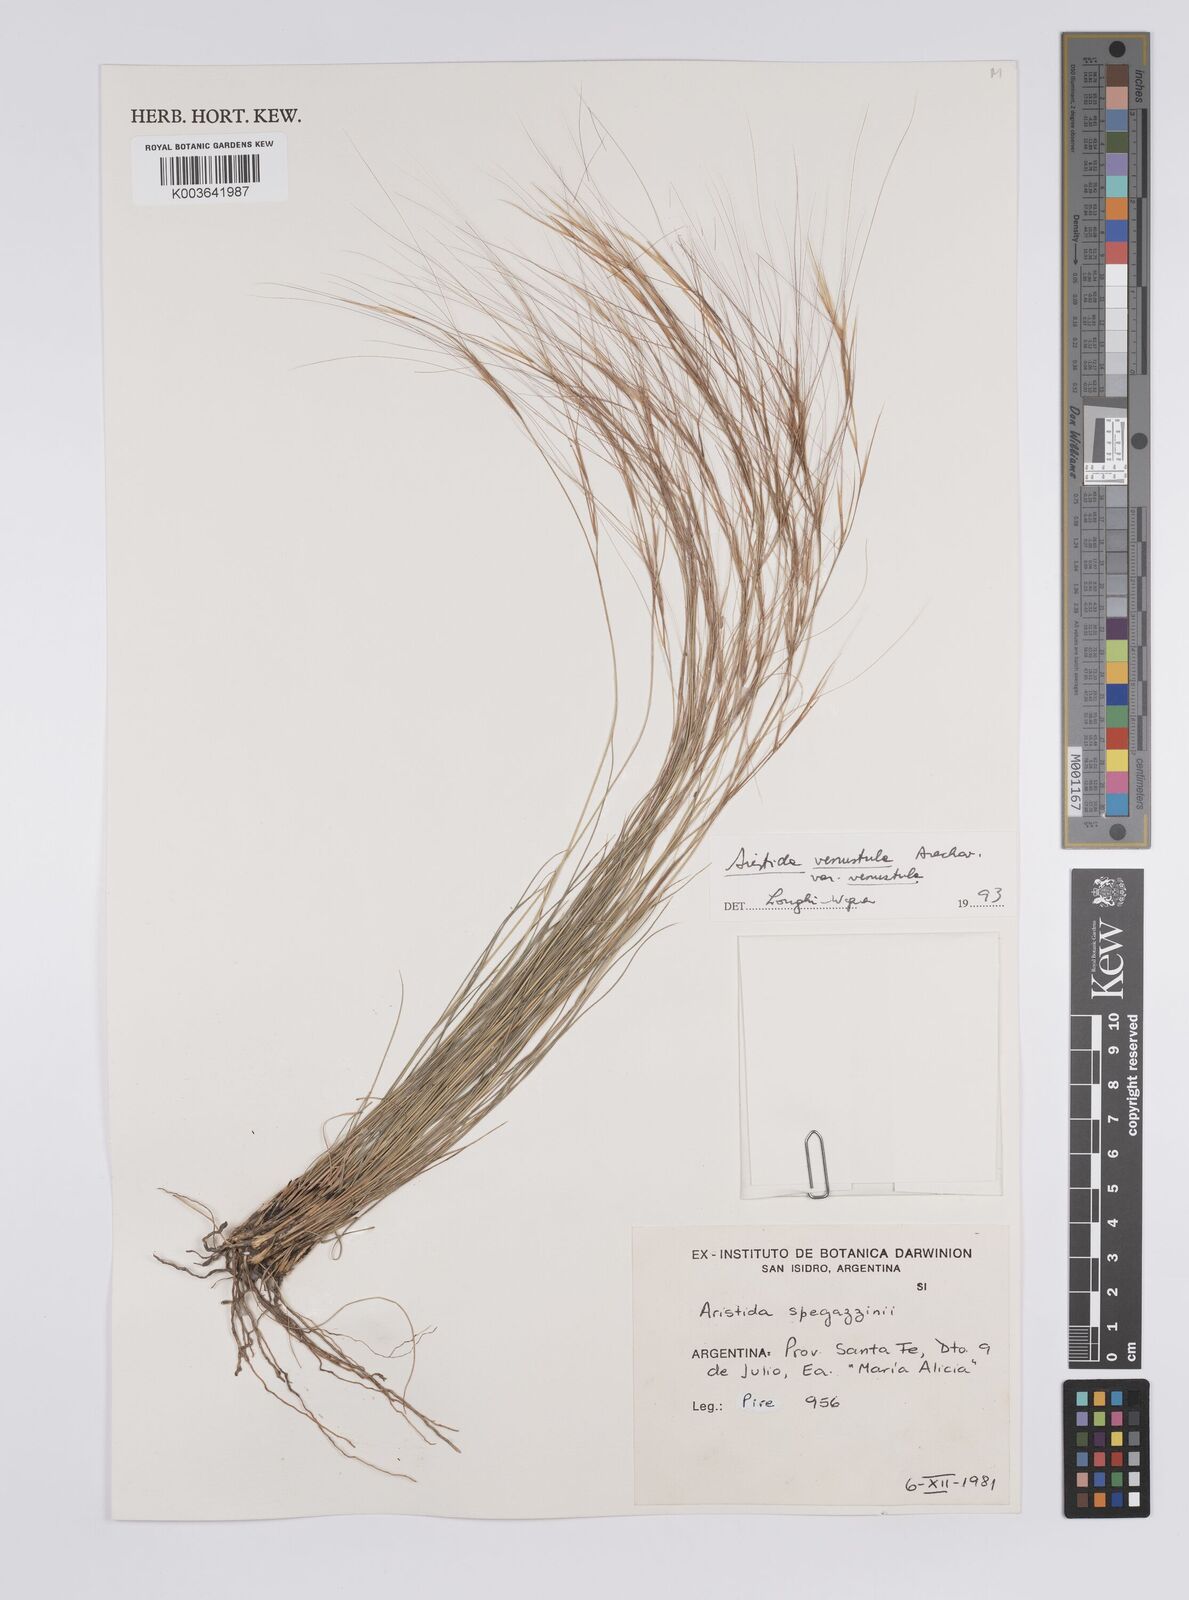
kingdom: Plantae
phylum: Tracheophyta
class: Liliopsida
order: Poales
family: Poaceae
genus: Aristida
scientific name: Aristida venustula
